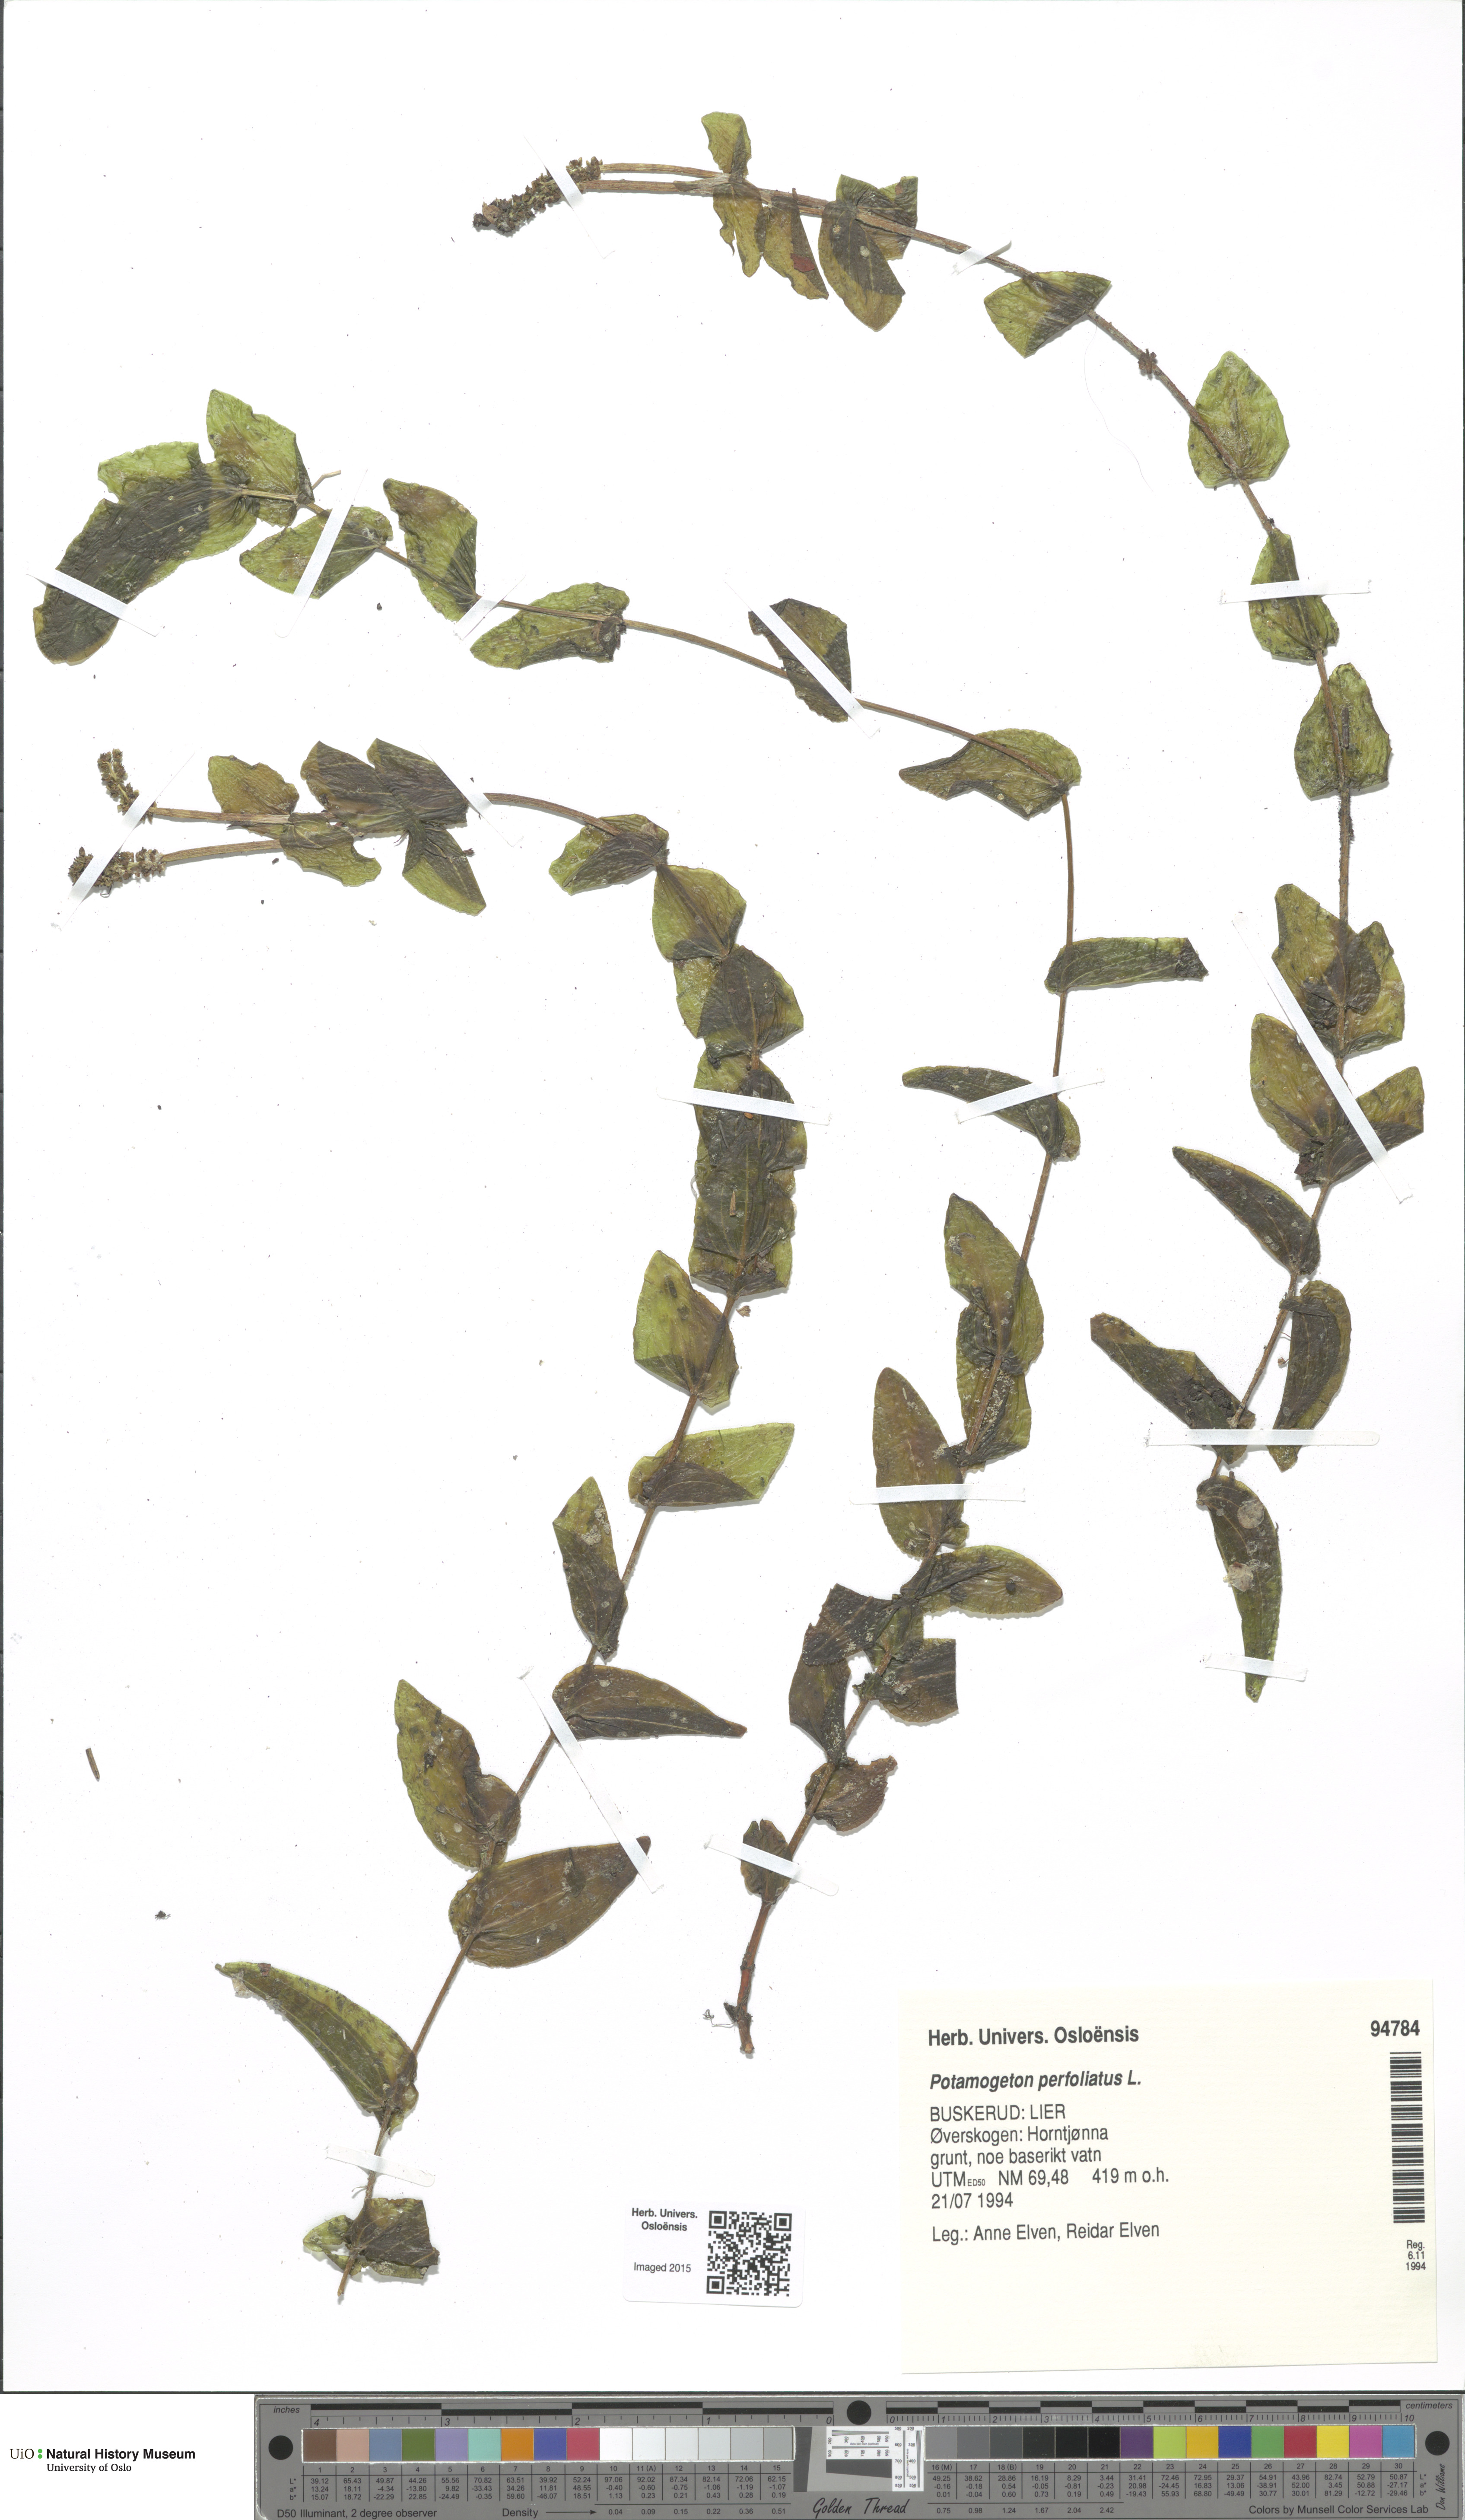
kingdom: Plantae
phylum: Tracheophyta
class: Liliopsida
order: Alismatales
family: Potamogetonaceae
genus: Potamogeton
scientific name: Potamogeton perfoliatus
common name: Perfoliate pondweed
